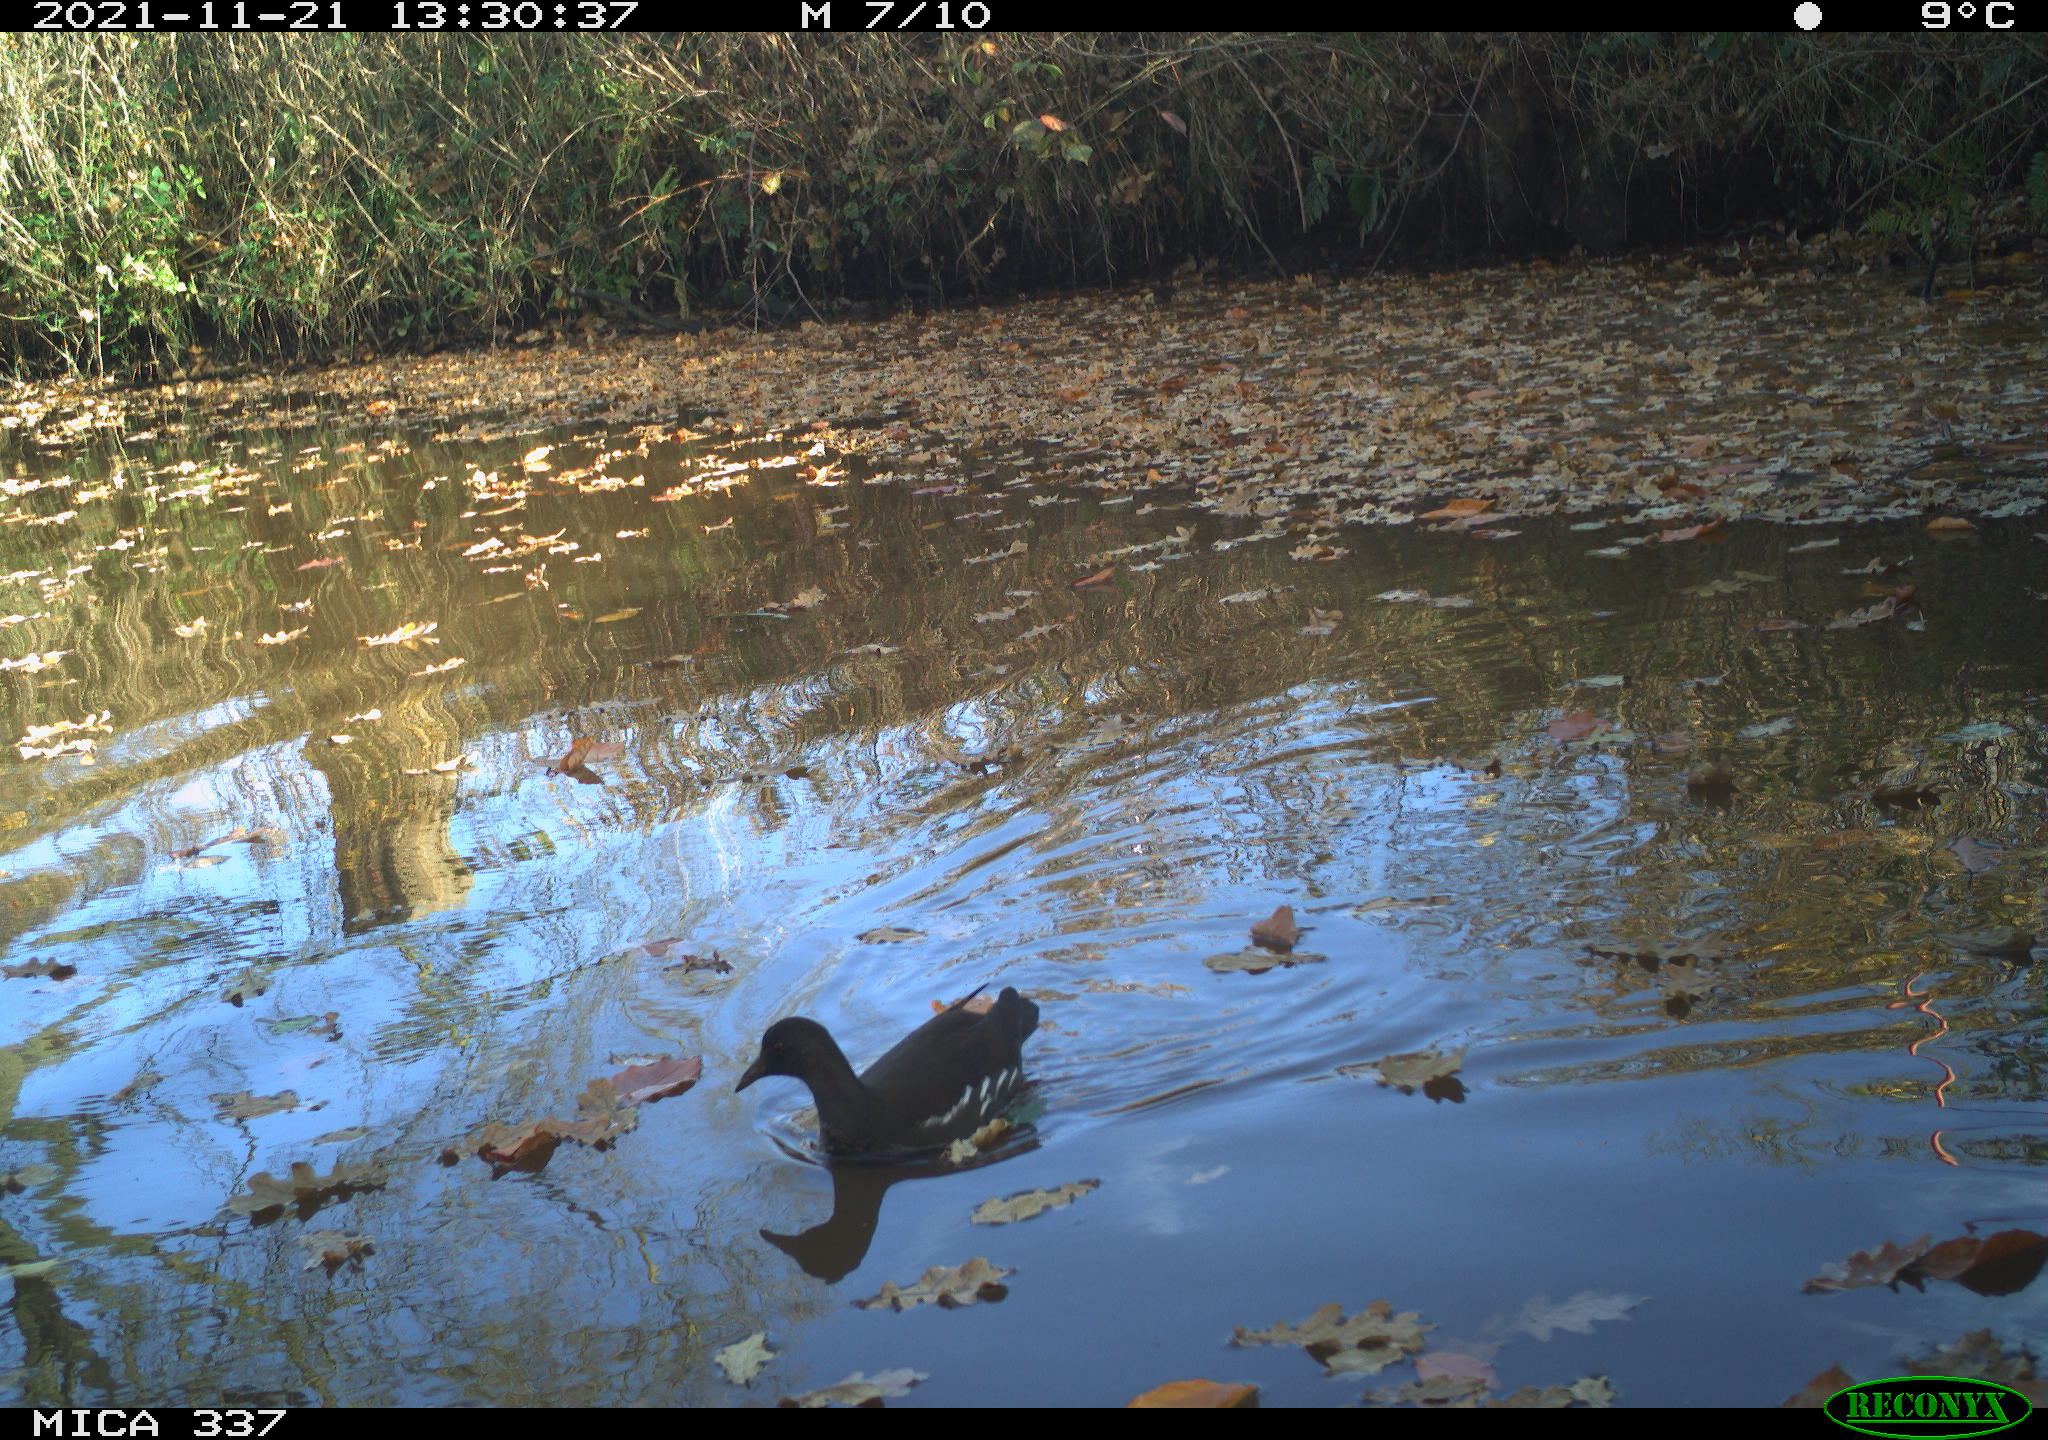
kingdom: Animalia
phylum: Chordata
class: Aves
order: Gruiformes
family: Rallidae
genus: Gallinula
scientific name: Gallinula chloropus
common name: Common moorhen
